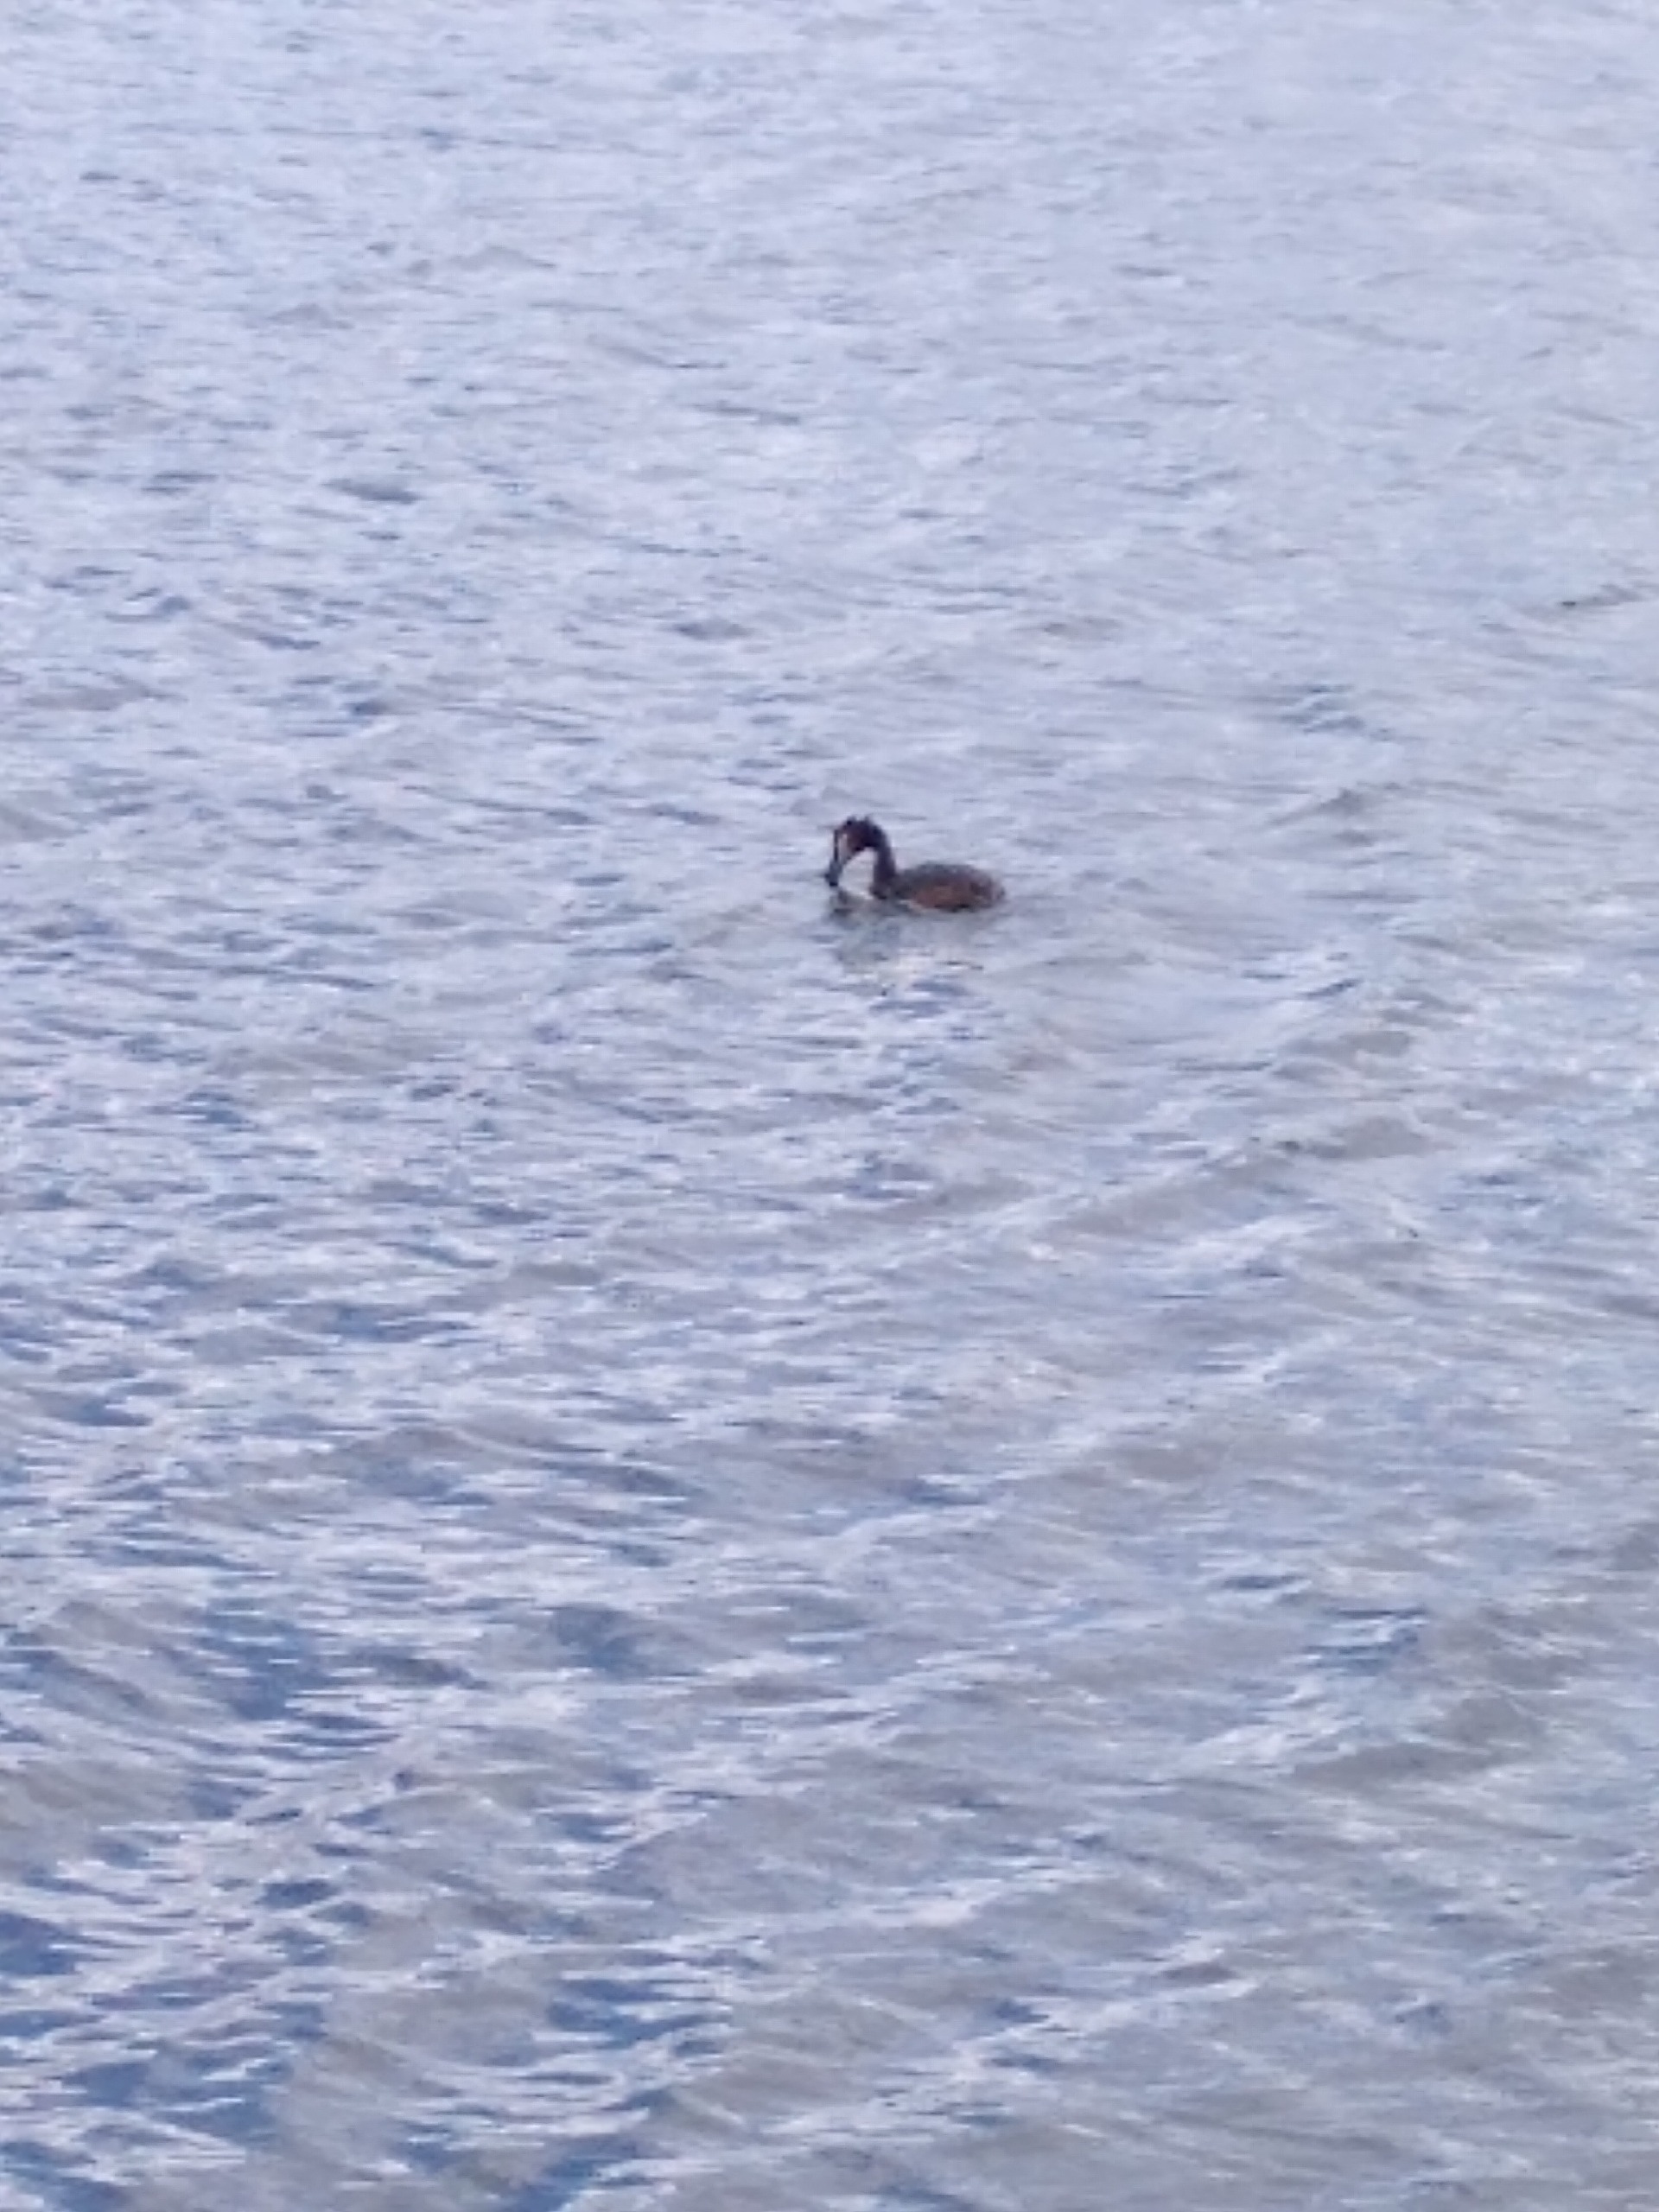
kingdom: Animalia
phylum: Chordata
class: Aves
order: Podicipediformes
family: Podicipedidae
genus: Podiceps
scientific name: Podiceps cristatus
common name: Toppet lappedykker
